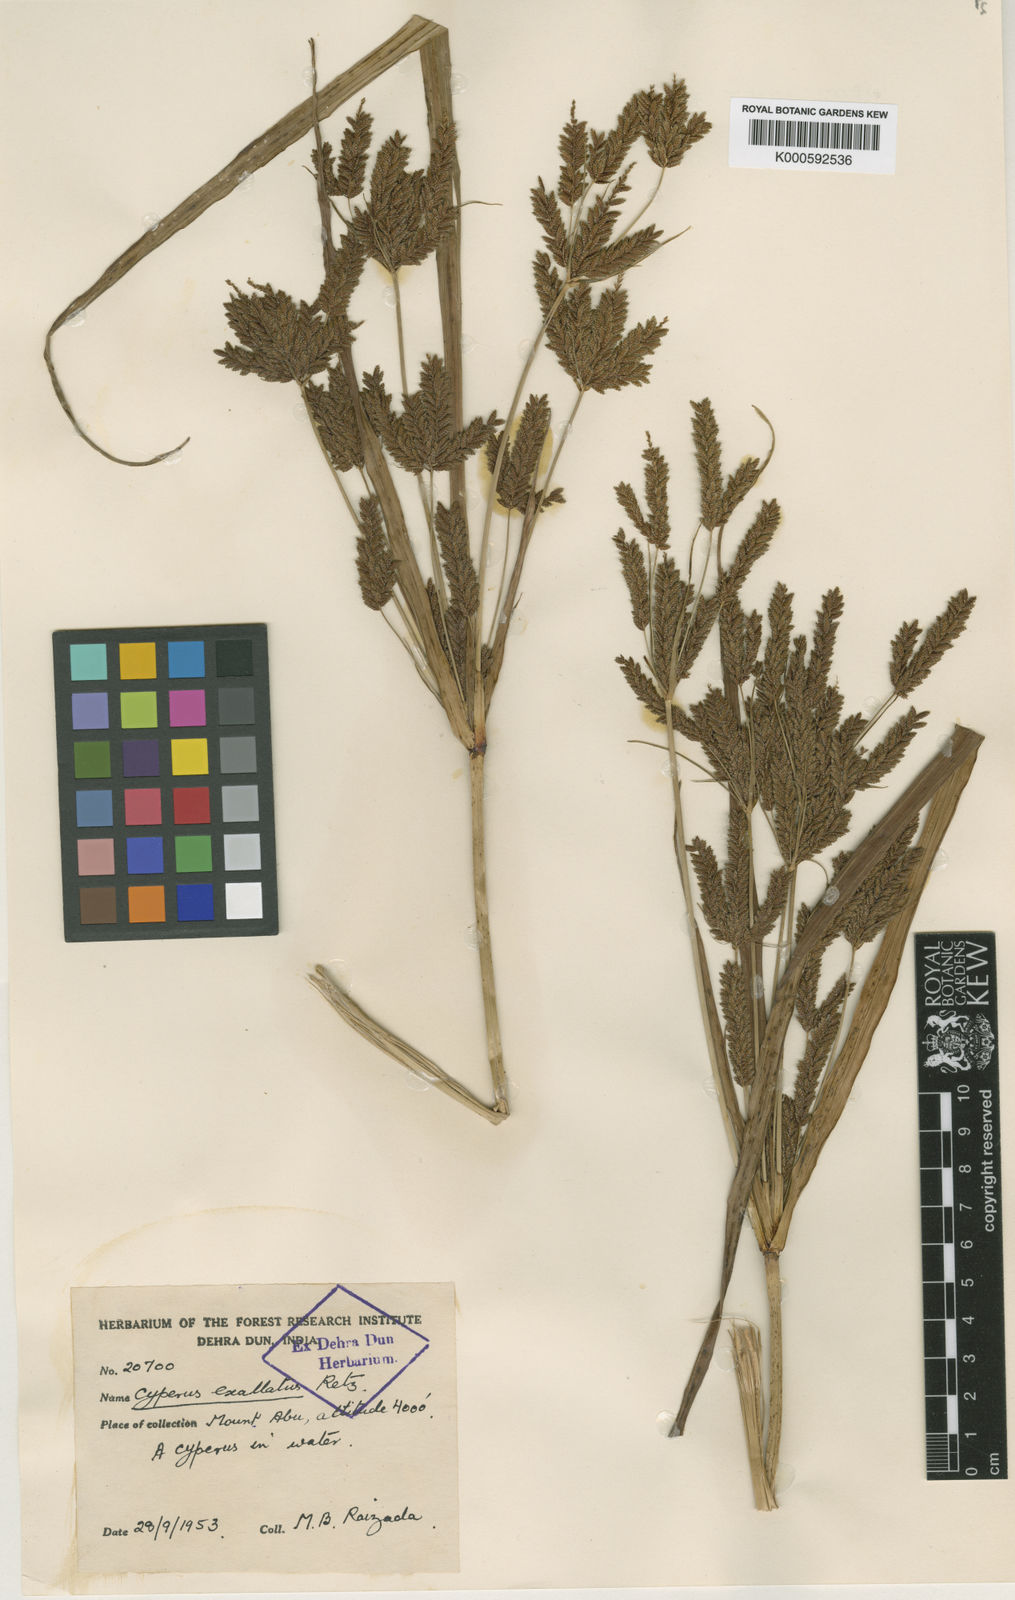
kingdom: Plantae
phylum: Tracheophyta
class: Liliopsida
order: Poales
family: Cyperaceae
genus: Cyperus
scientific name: Cyperus exaltatus
